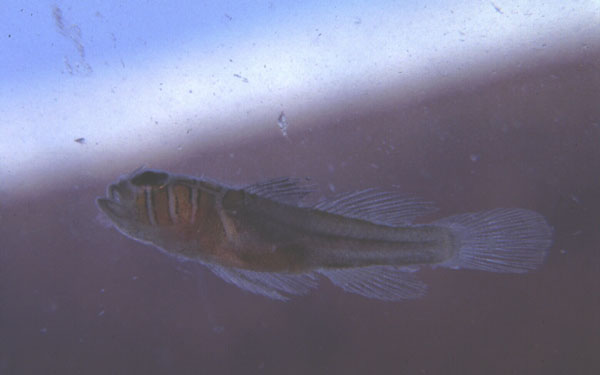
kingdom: Animalia
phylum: Chordata
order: Perciformes
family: Gobiidae
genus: Priolepis
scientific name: Priolepis compita
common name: Crossroads goby
